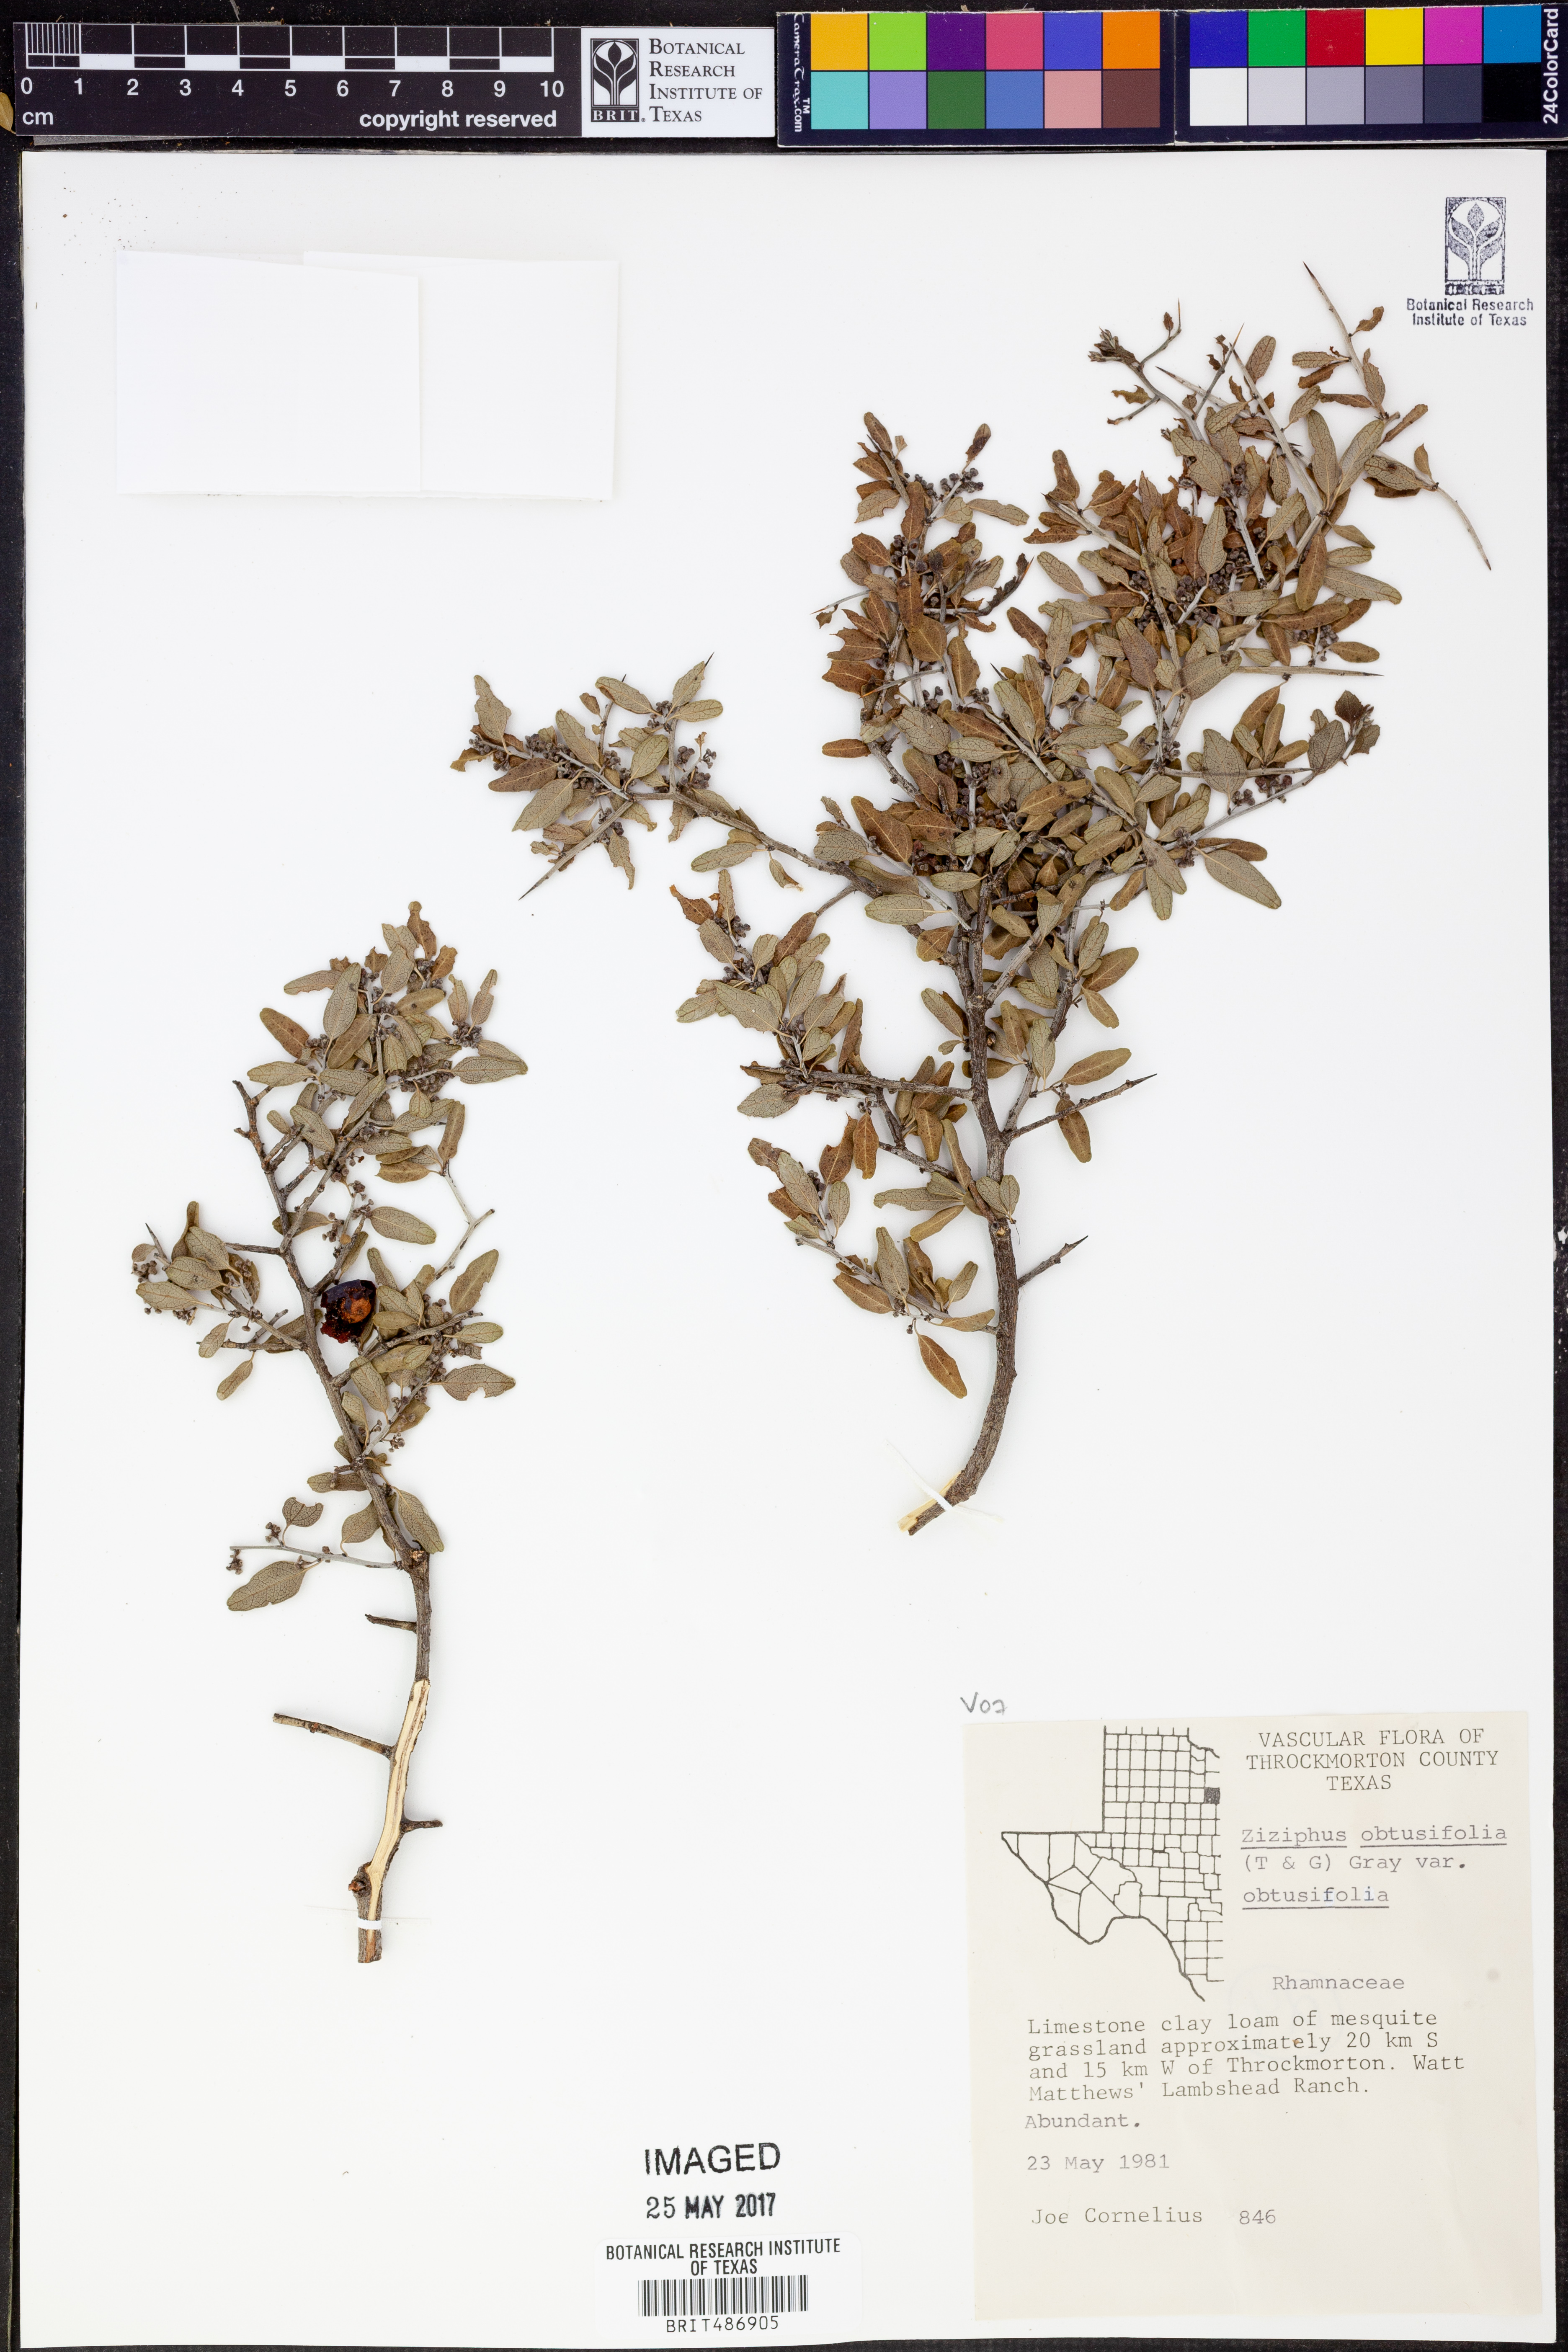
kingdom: Plantae
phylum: Tracheophyta
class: Magnoliopsida
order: Rosales
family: Rhamnaceae
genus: Sarcomphalus
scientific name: Sarcomphalus obtusifolius
